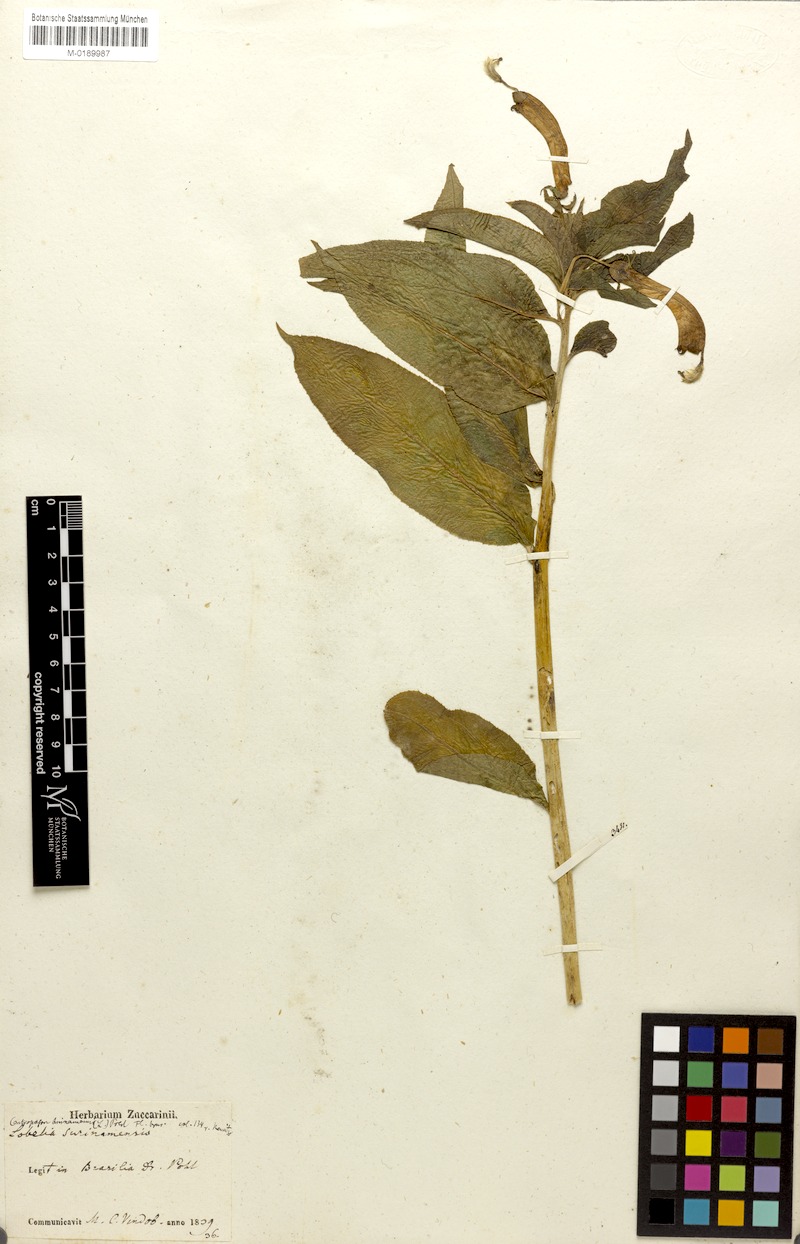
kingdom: Plantae
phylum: Tracheophyta
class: Magnoliopsida
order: Asterales
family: Campanulaceae
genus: Centropogon
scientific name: Centropogon cornutus
